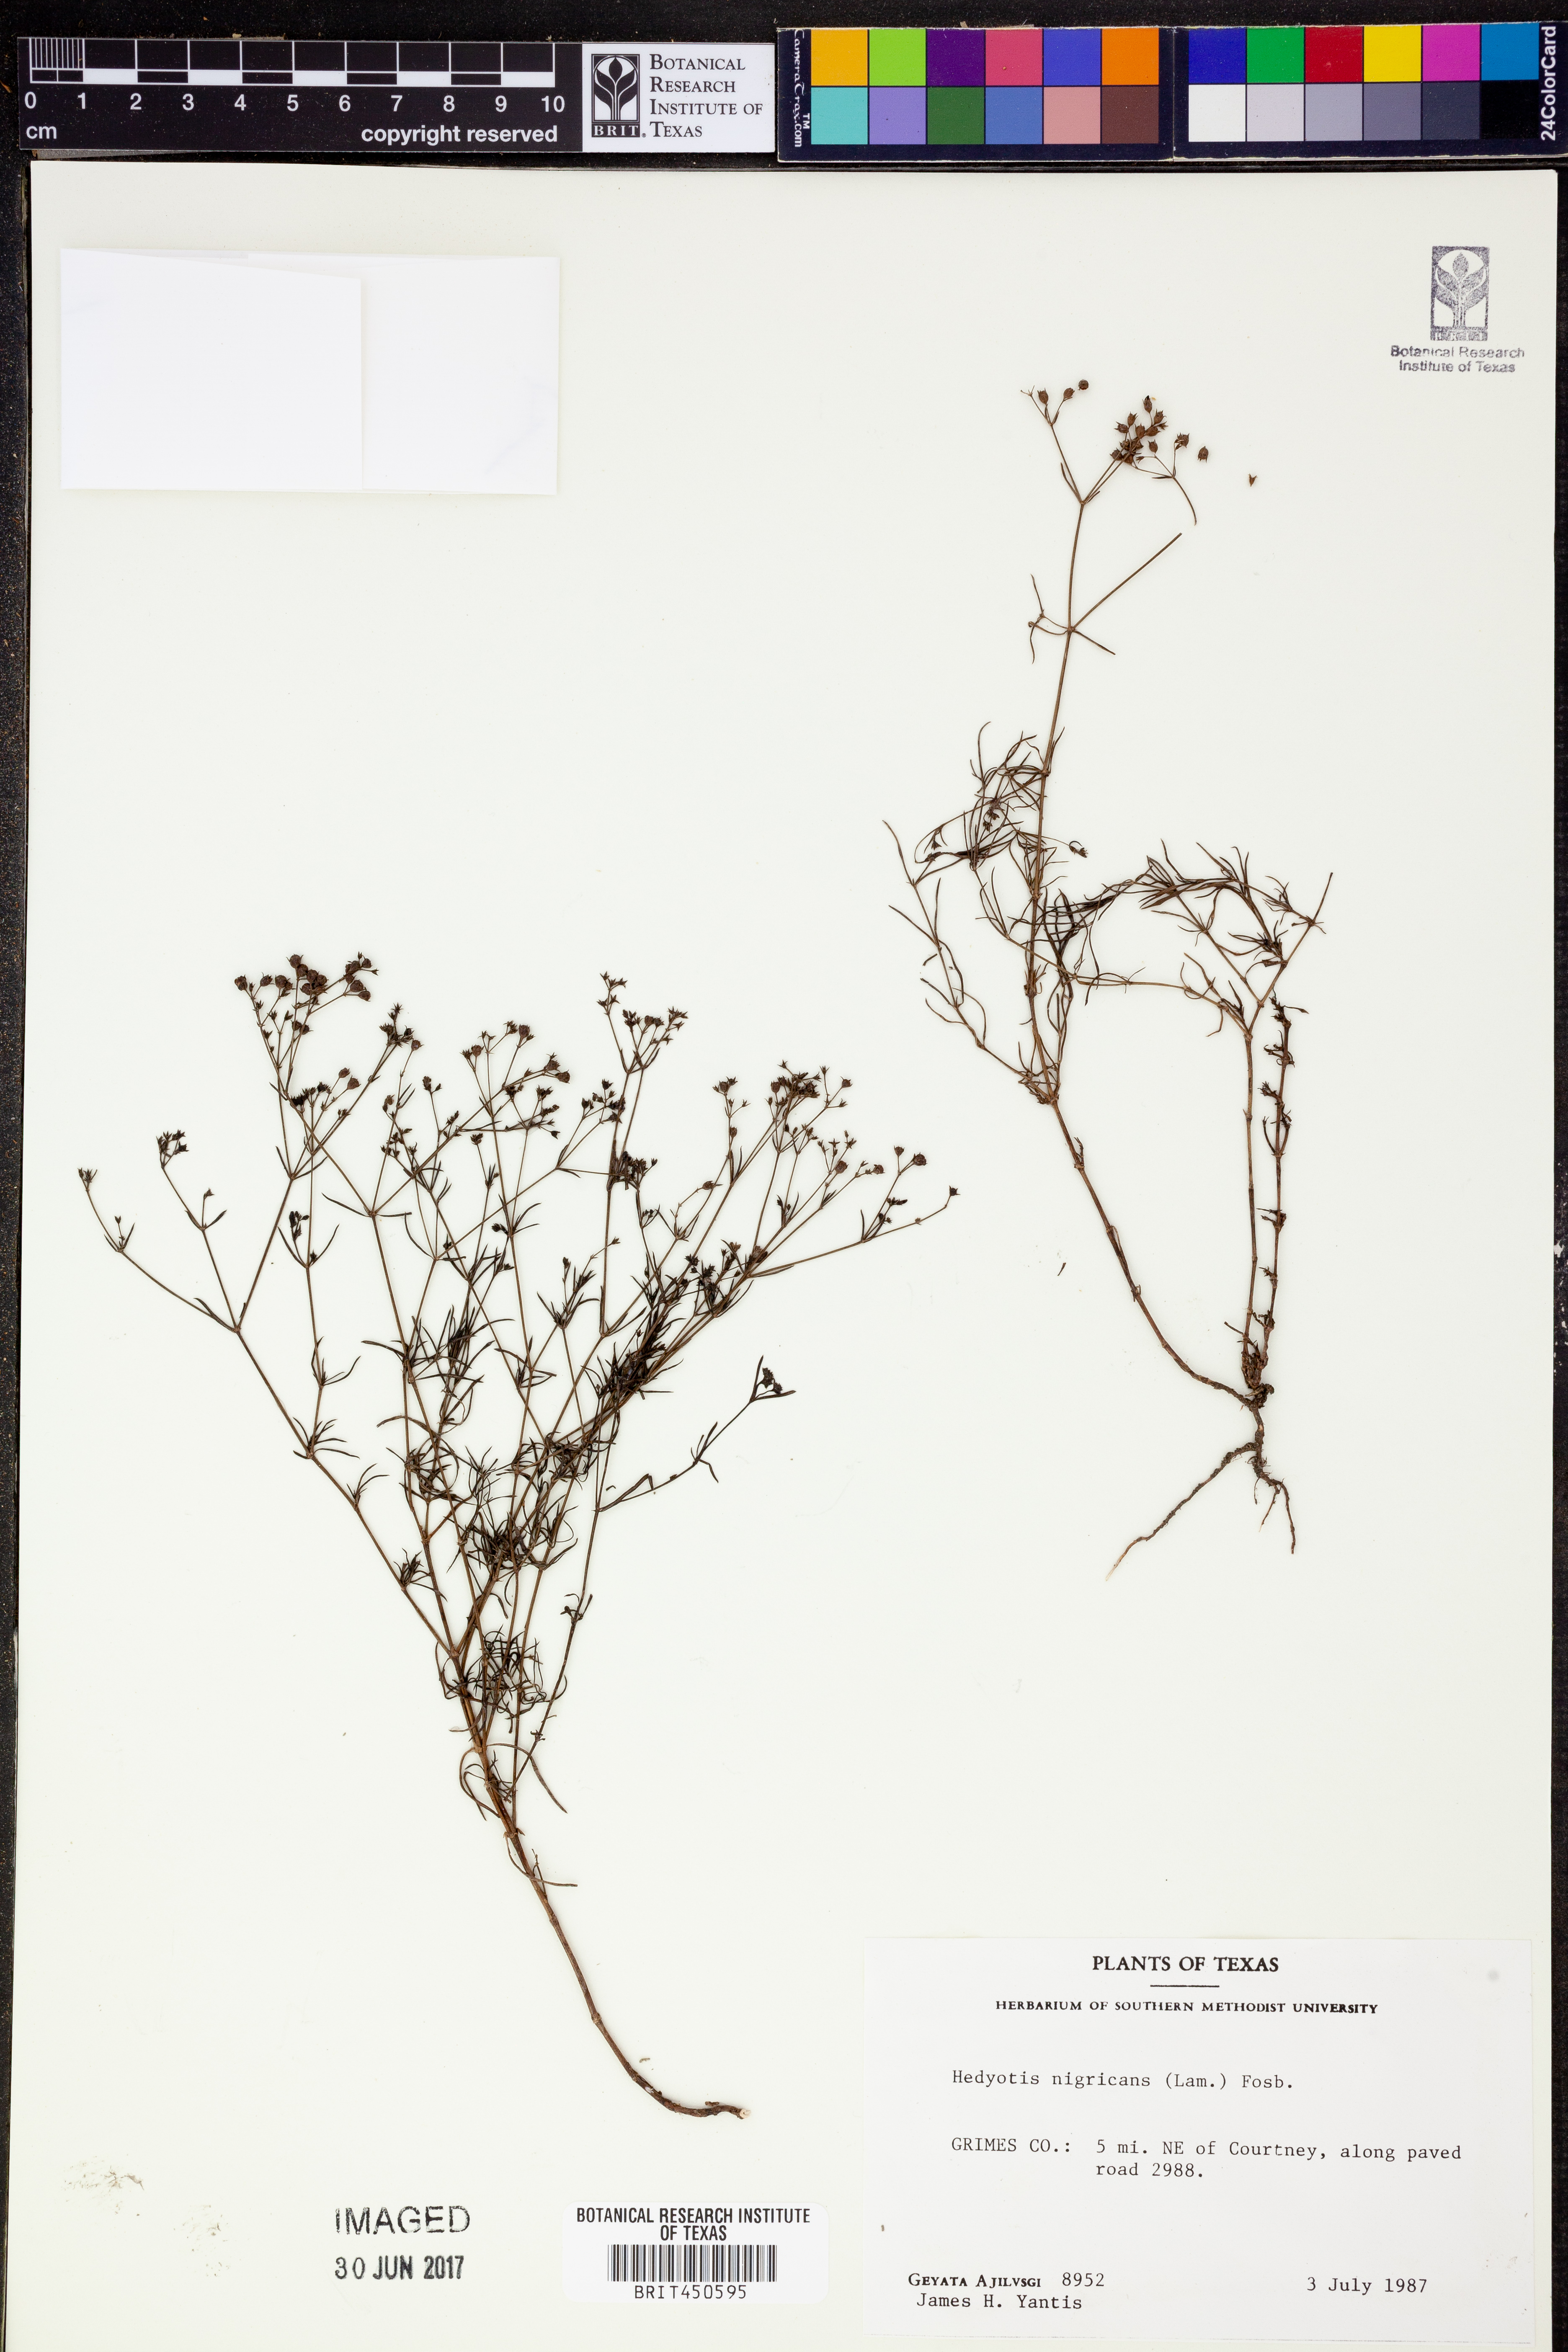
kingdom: Plantae
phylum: Tracheophyta
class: Magnoliopsida
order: Gentianales
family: Rubiaceae
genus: Stenaria
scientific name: Stenaria nigricans
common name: Diamondflowers
